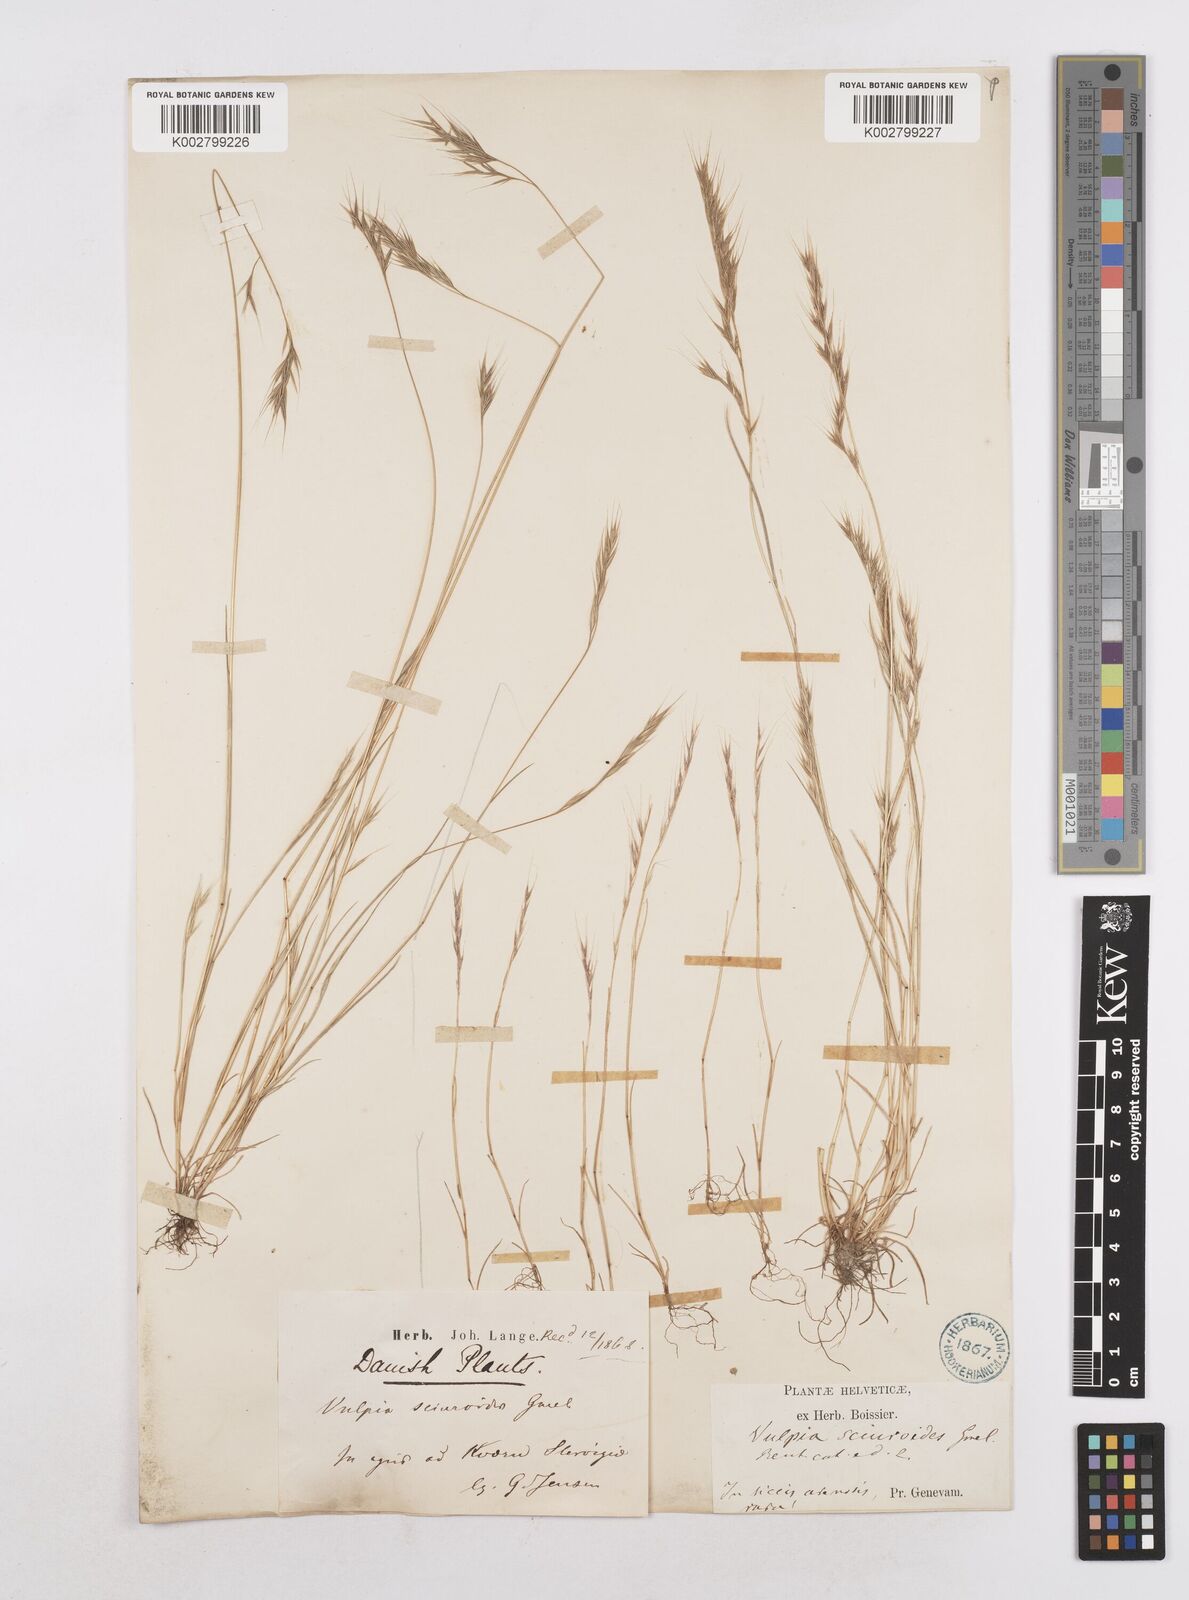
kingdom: Plantae
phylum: Tracheophyta
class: Liliopsida
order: Poales
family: Poaceae
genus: Festuca
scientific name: Festuca bromoides
